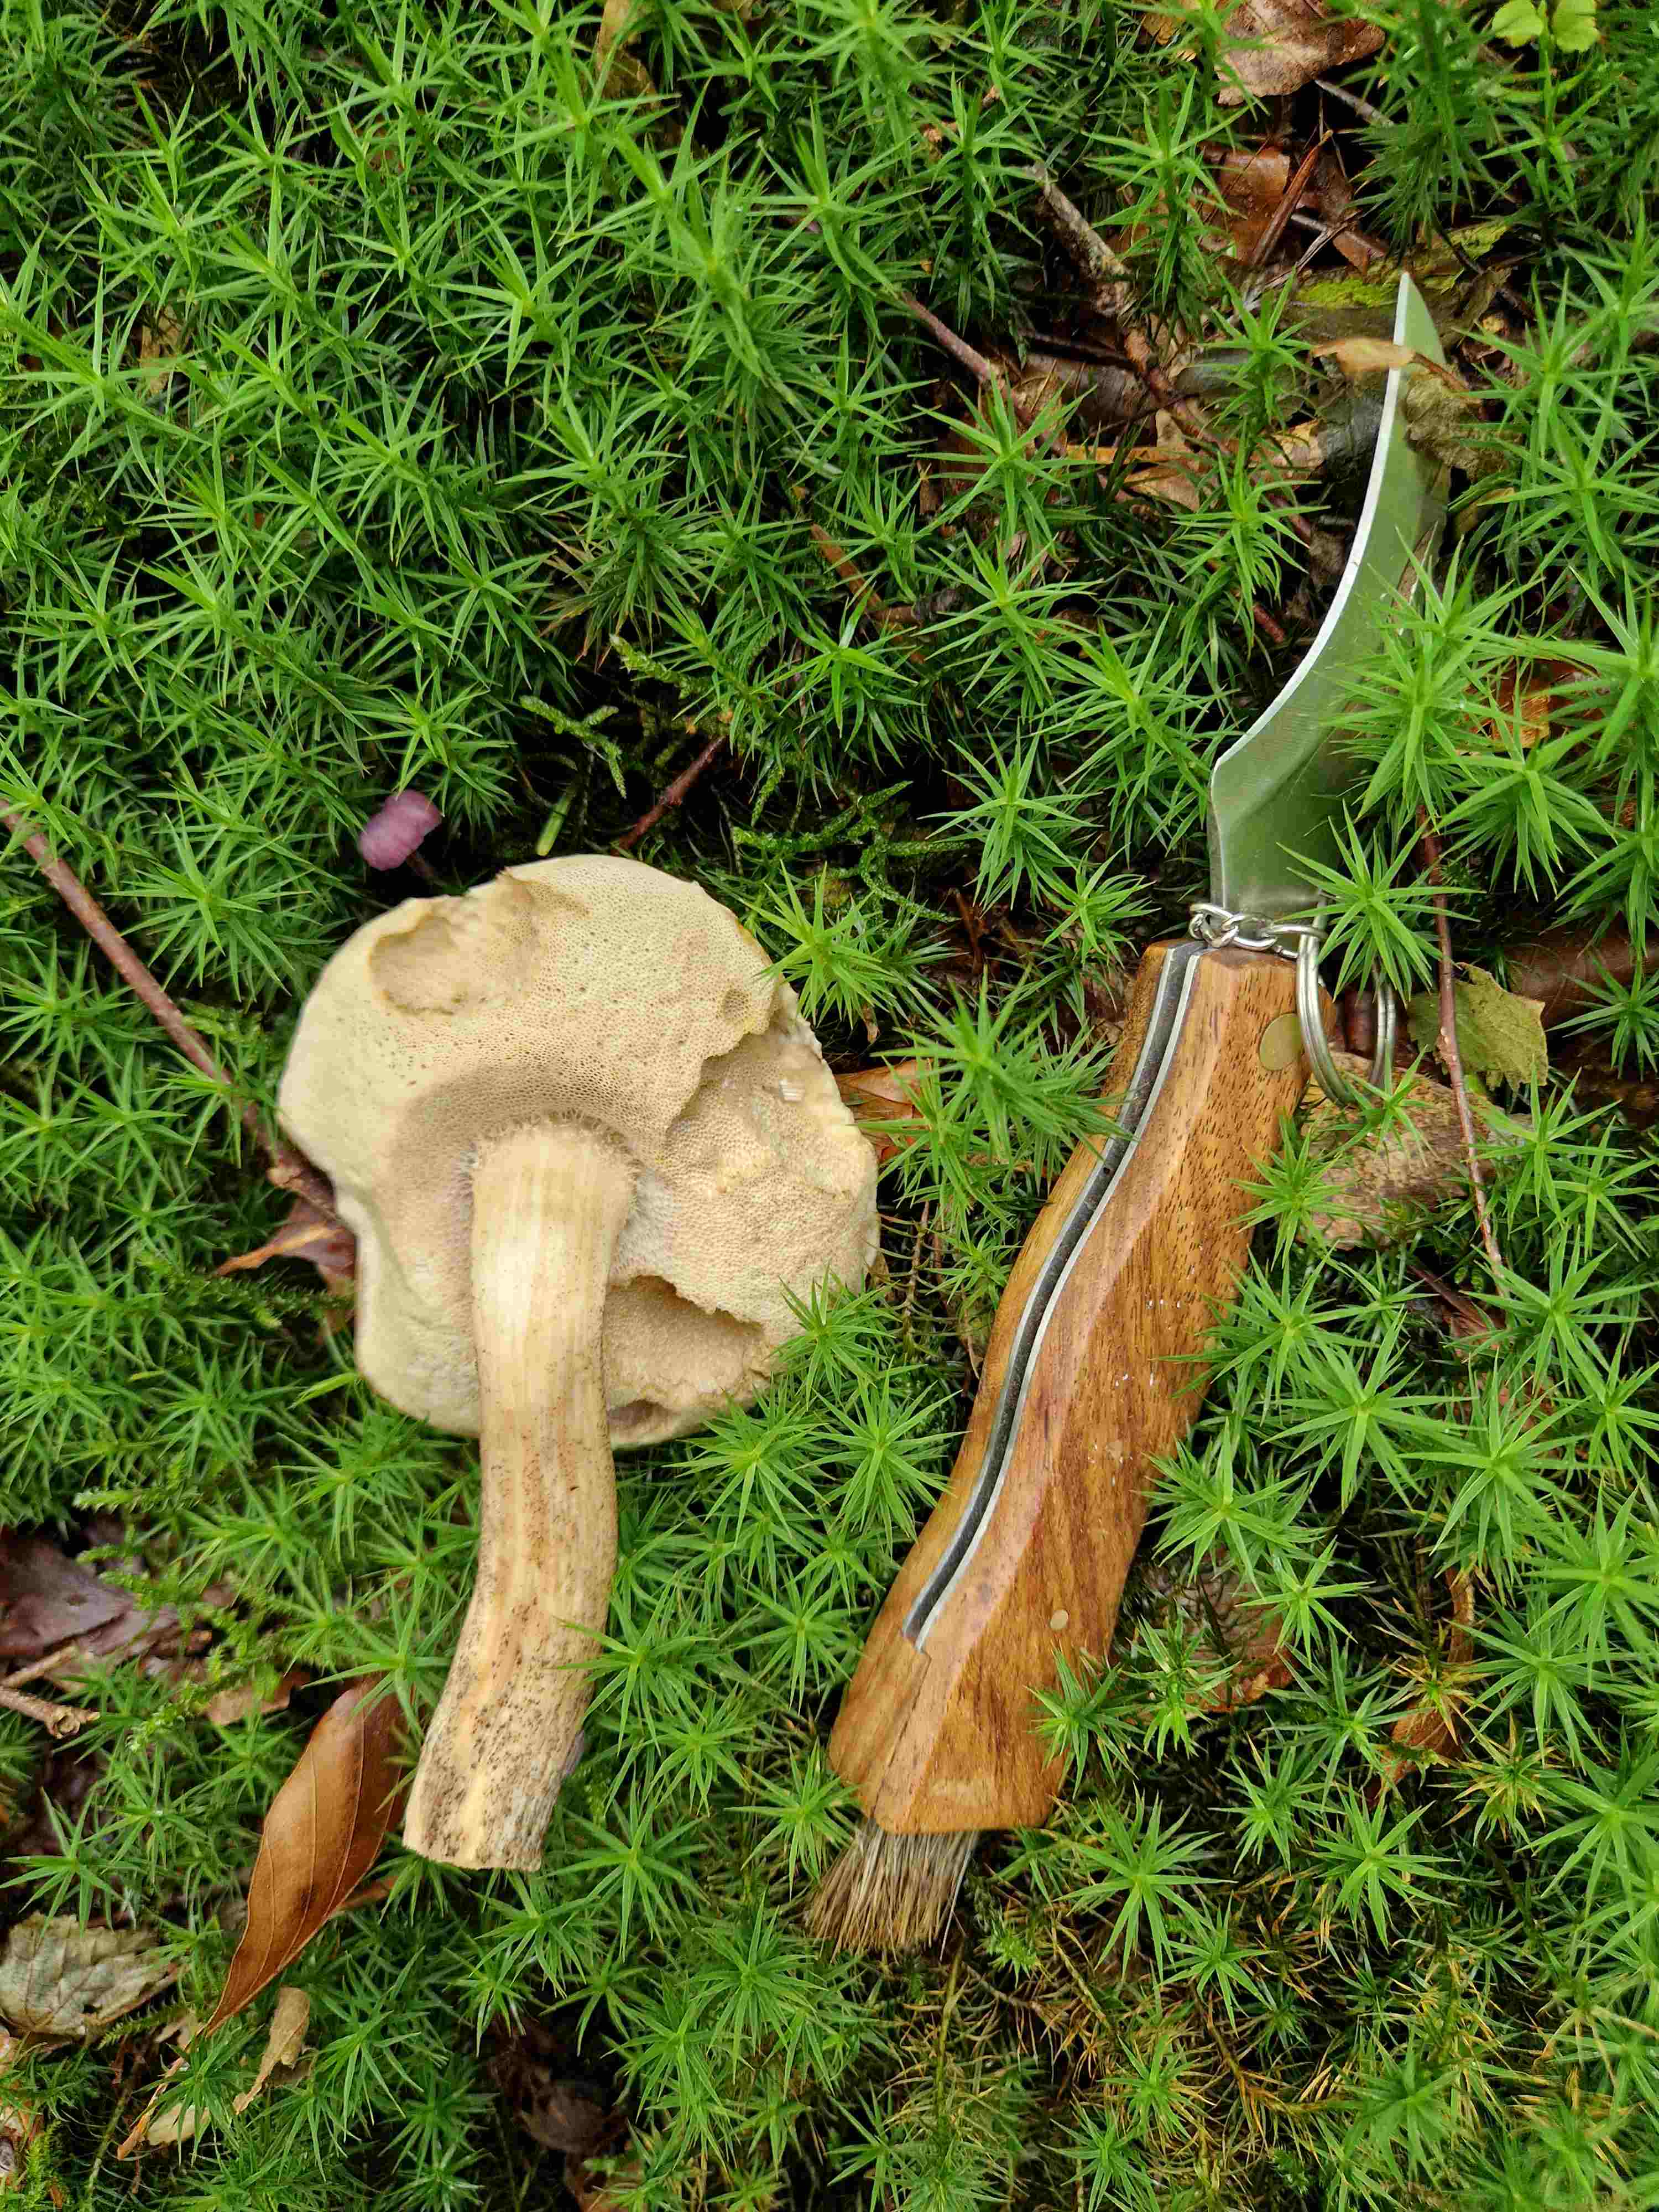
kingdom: Fungi
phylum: Basidiomycota
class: Agaricomycetes
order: Boletales
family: Boletaceae
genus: Leccinum
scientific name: Leccinum
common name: skælrørhat
